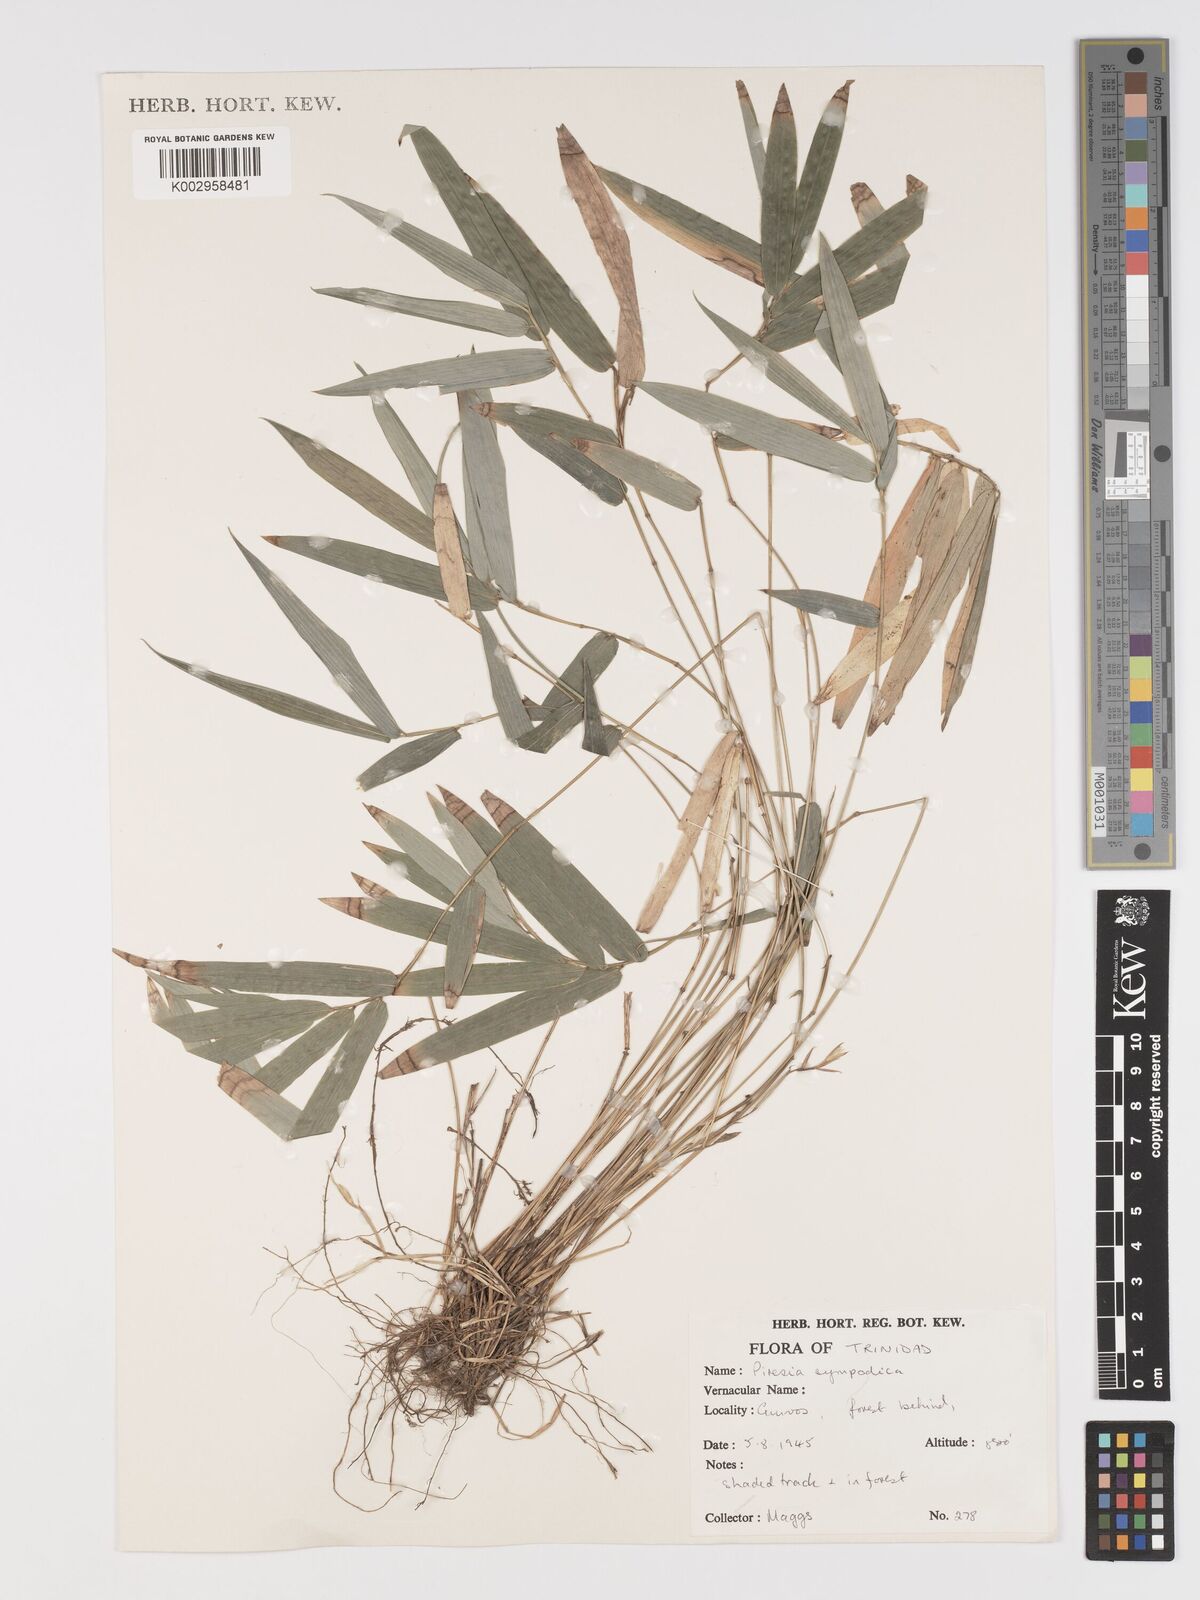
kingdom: Plantae
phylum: Tracheophyta
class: Liliopsida
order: Poales
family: Poaceae
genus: Piresia
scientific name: Piresia sympodica
